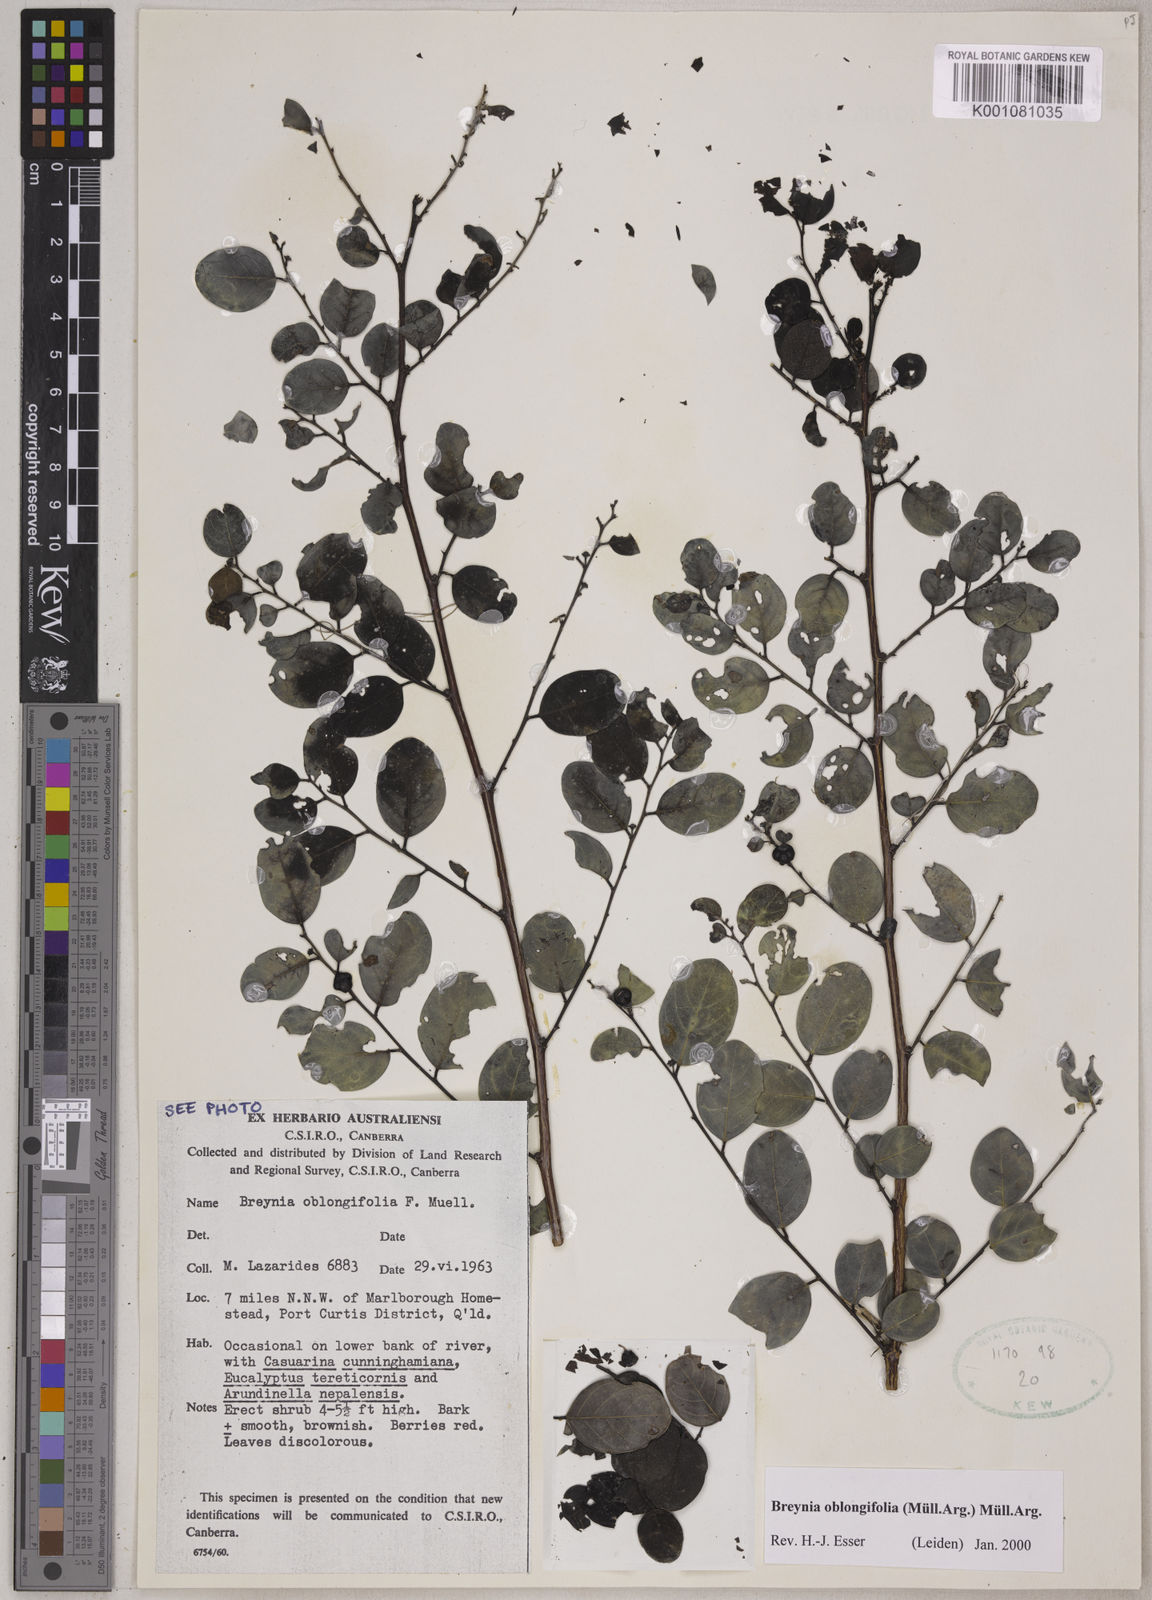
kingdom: Plantae
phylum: Tracheophyta
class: Magnoliopsida
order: Malpighiales
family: Phyllanthaceae
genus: Breynia
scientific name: Breynia oblongifolia
